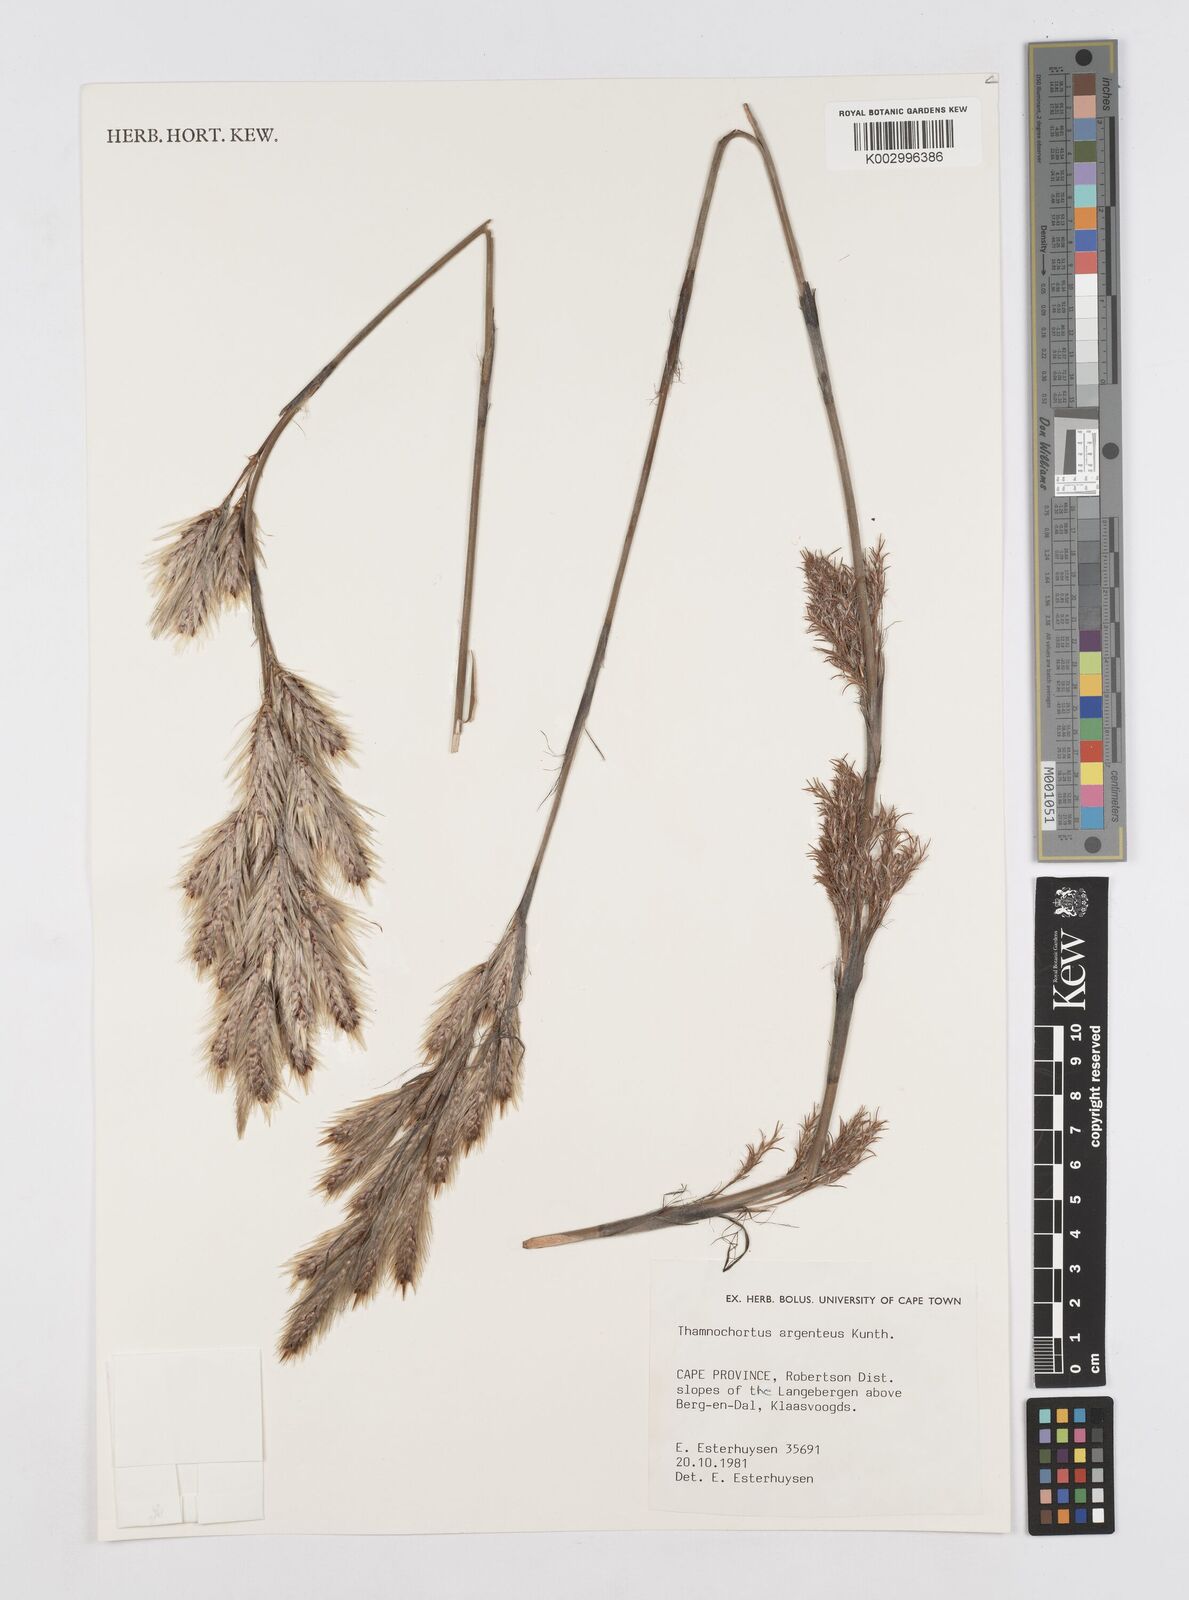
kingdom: Plantae
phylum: Tracheophyta
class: Liliopsida
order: Poales
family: Restionaceae
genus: Hypodiscus
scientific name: Hypodiscus argenteus
